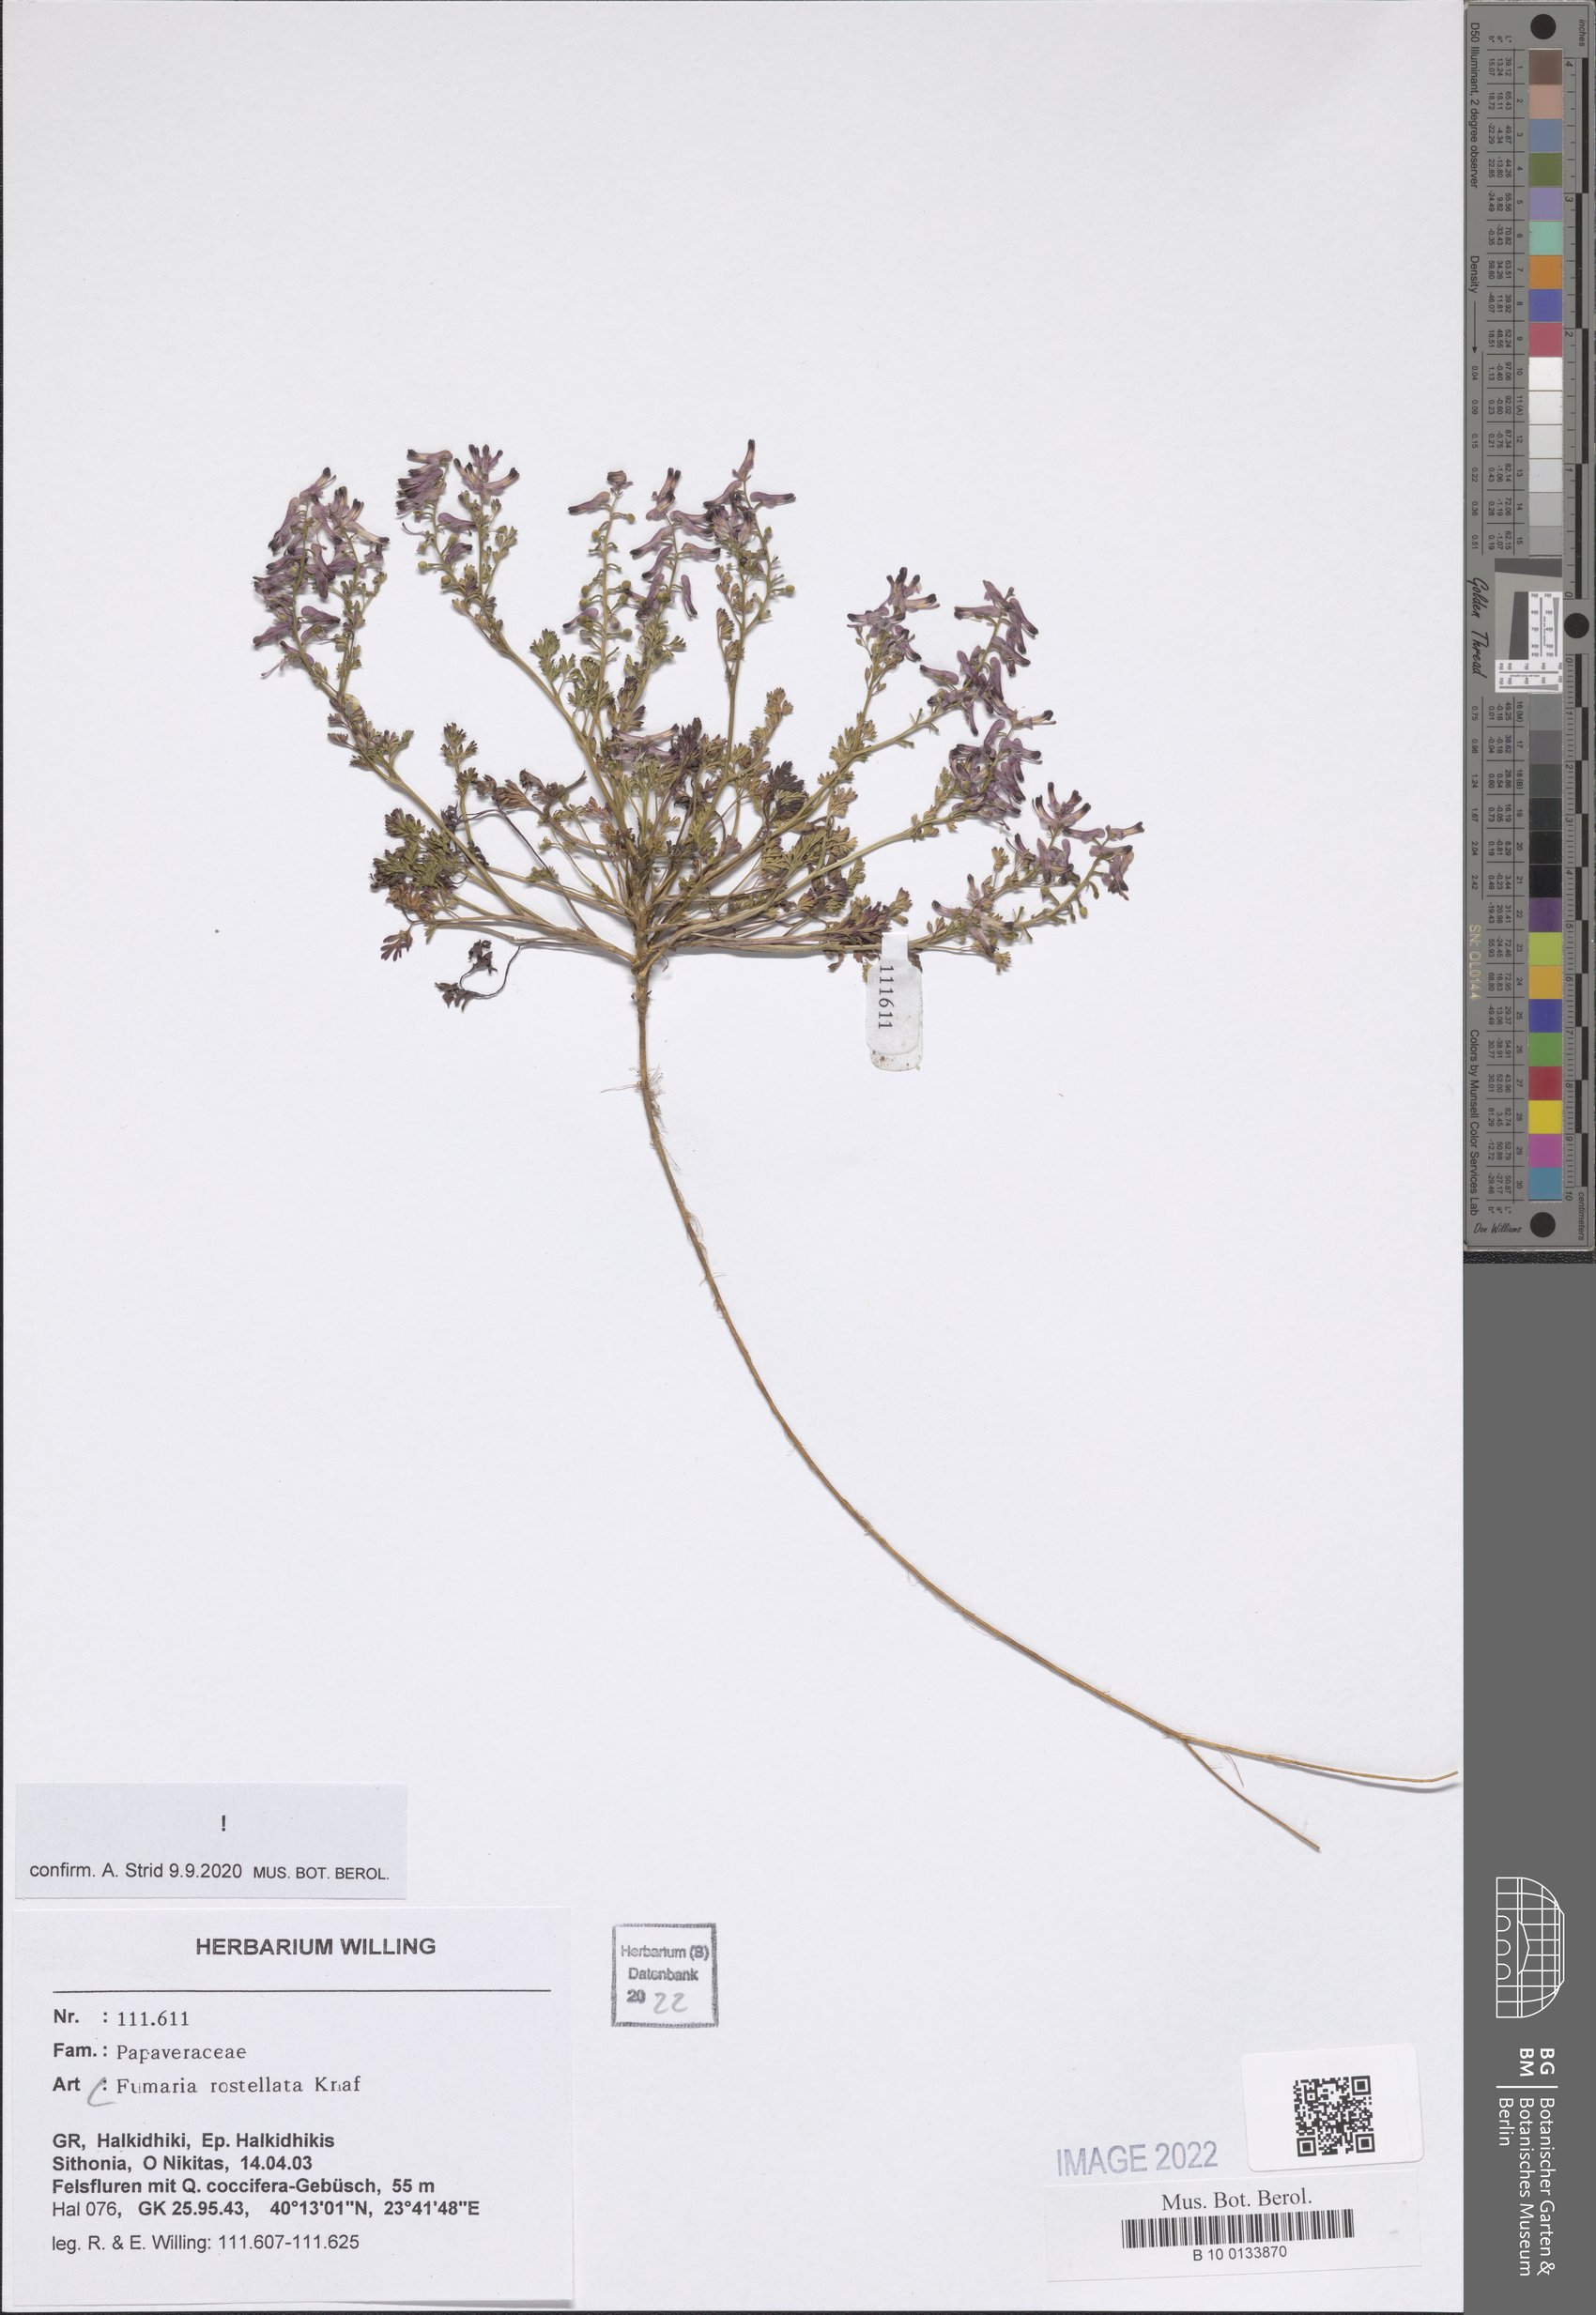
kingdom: Plantae
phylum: Tracheophyta
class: Magnoliopsida
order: Ranunculales
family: Papaveraceae
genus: Fumaria
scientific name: Fumaria rostellata
